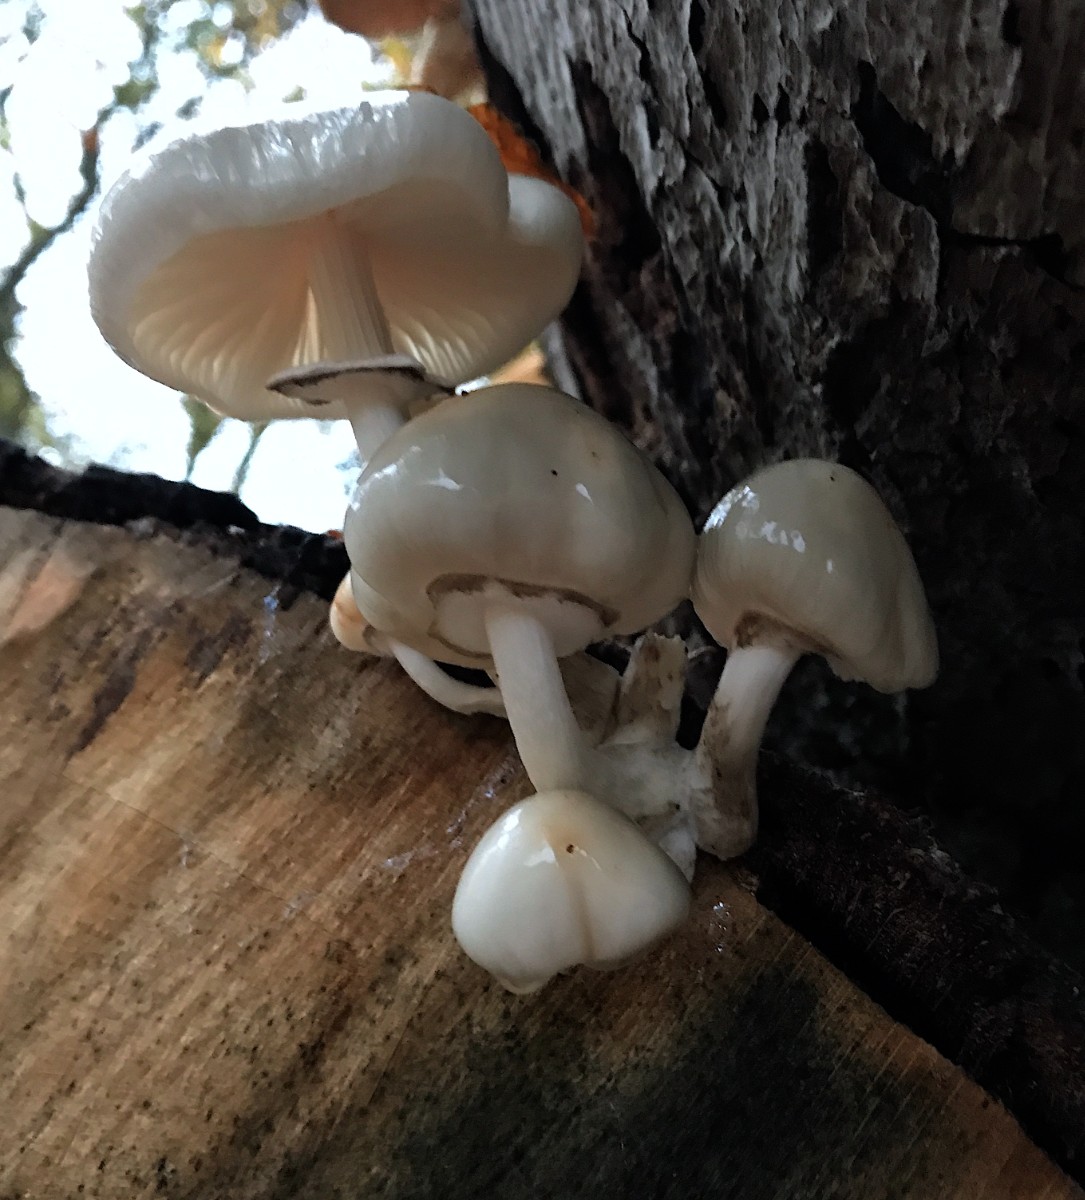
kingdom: Fungi
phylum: Basidiomycota
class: Agaricomycetes
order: Agaricales
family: Physalacriaceae
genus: Mucidula
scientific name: Mucidula mucida
